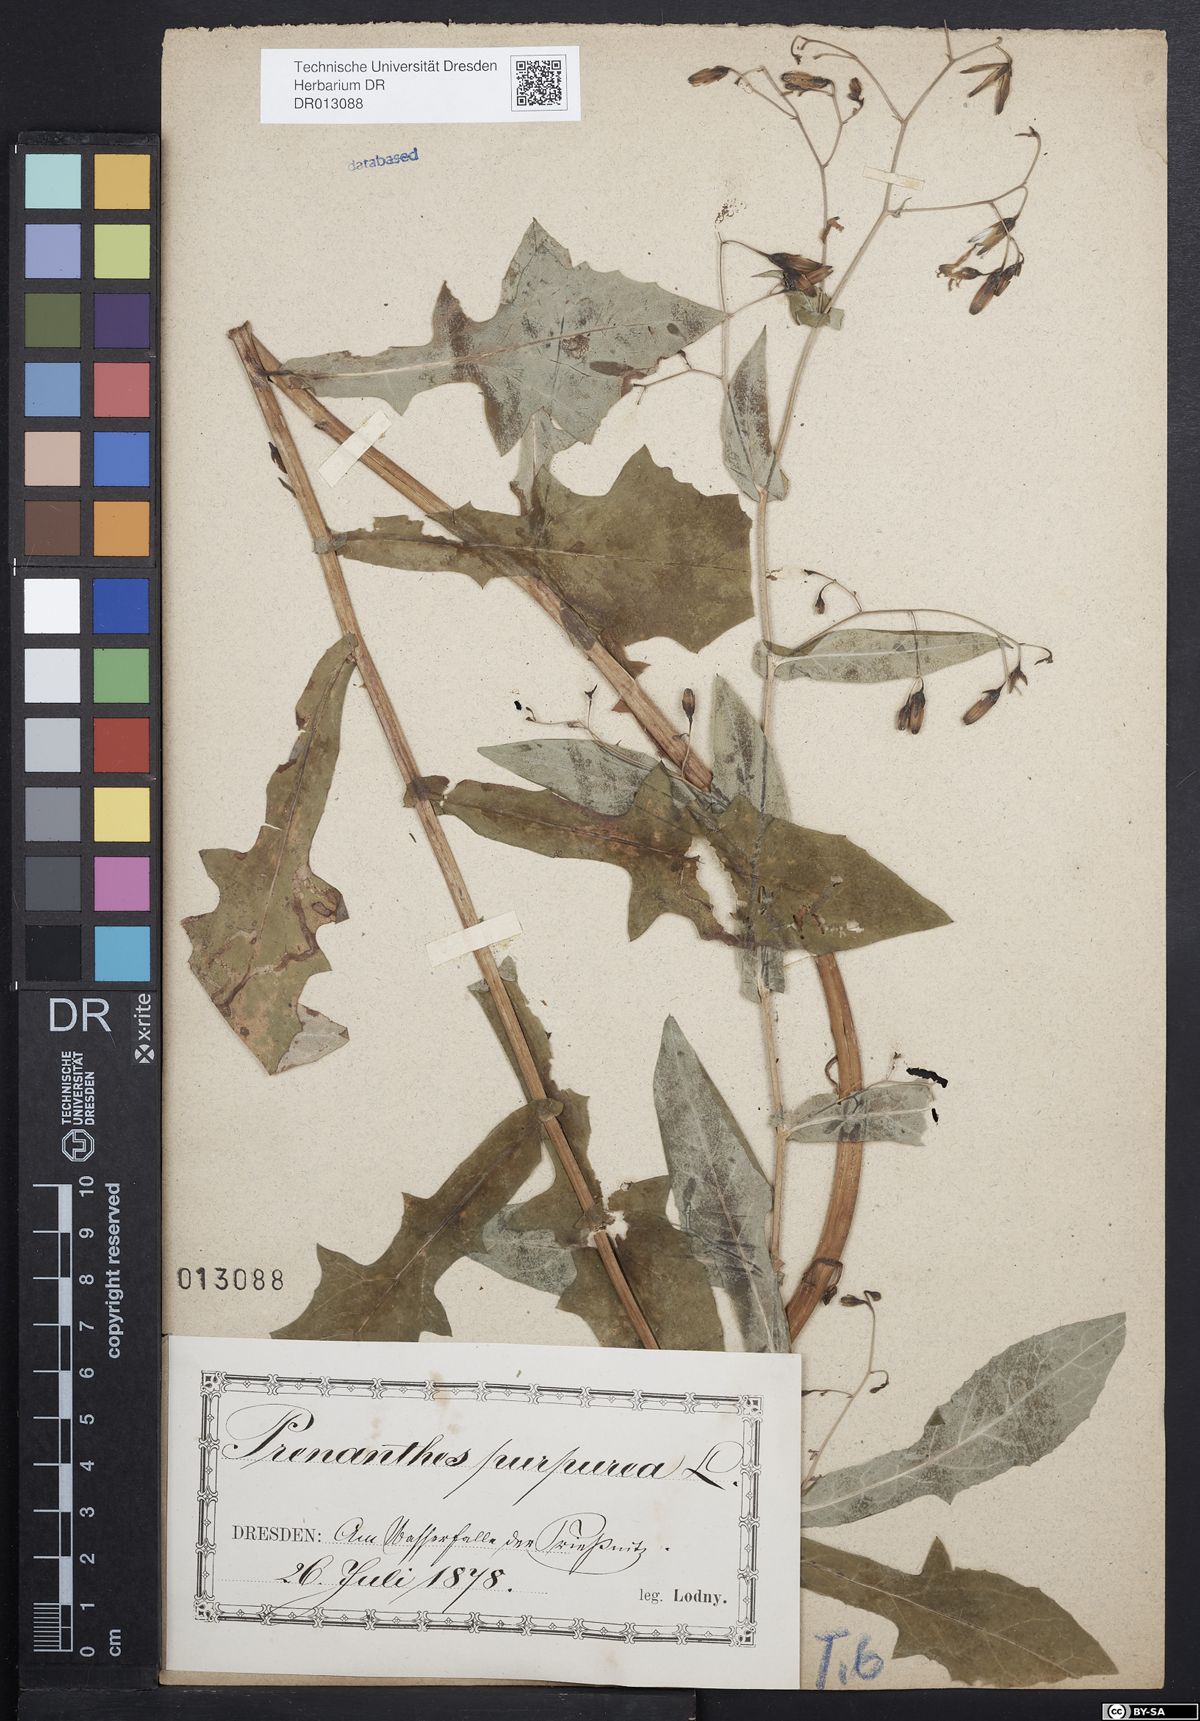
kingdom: Plantae
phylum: Tracheophyta
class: Magnoliopsida
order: Asterales
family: Asteraceae
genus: Prenanthes
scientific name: Prenanthes purpurea
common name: Purple lettuce
